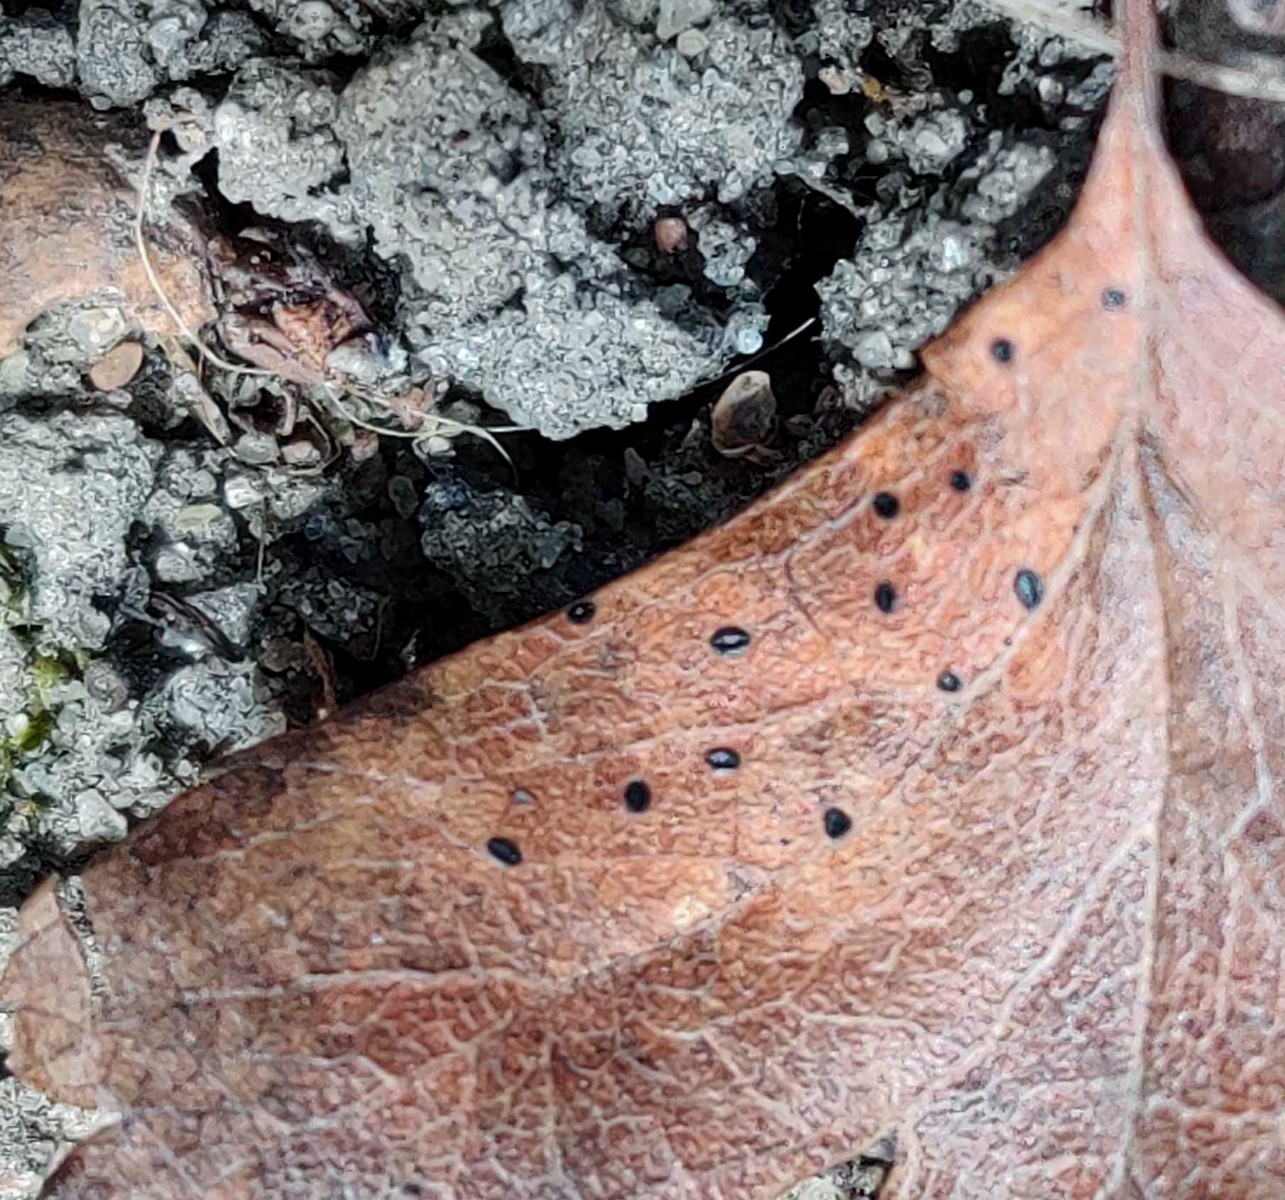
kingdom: Fungi
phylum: Ascomycota
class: Leotiomycetes
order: Rhytismatales
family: Rhytismataceae
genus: Lophodermium
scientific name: Lophodermium foliicola
